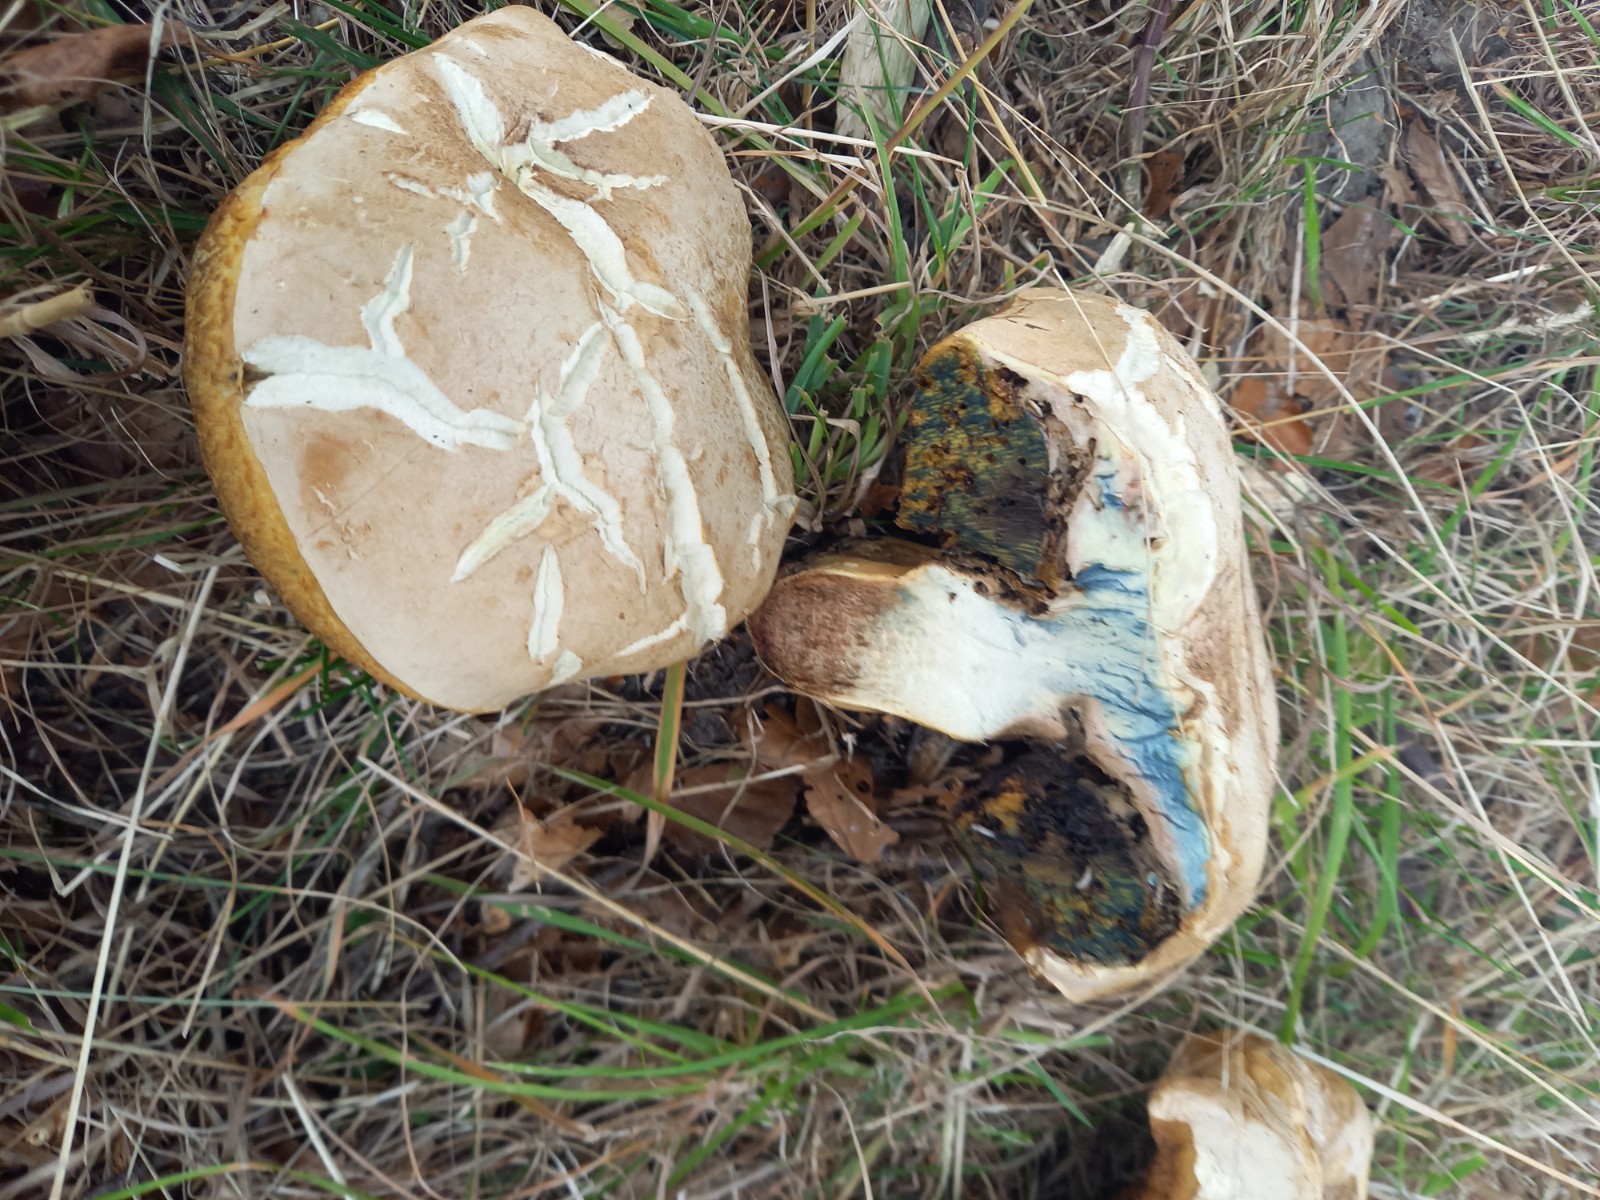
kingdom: Fungi
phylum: Basidiomycota
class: Agaricomycetes
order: Boletales
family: Boletaceae
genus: Caloboletus
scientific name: Caloboletus radicans
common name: rod-rørhat
